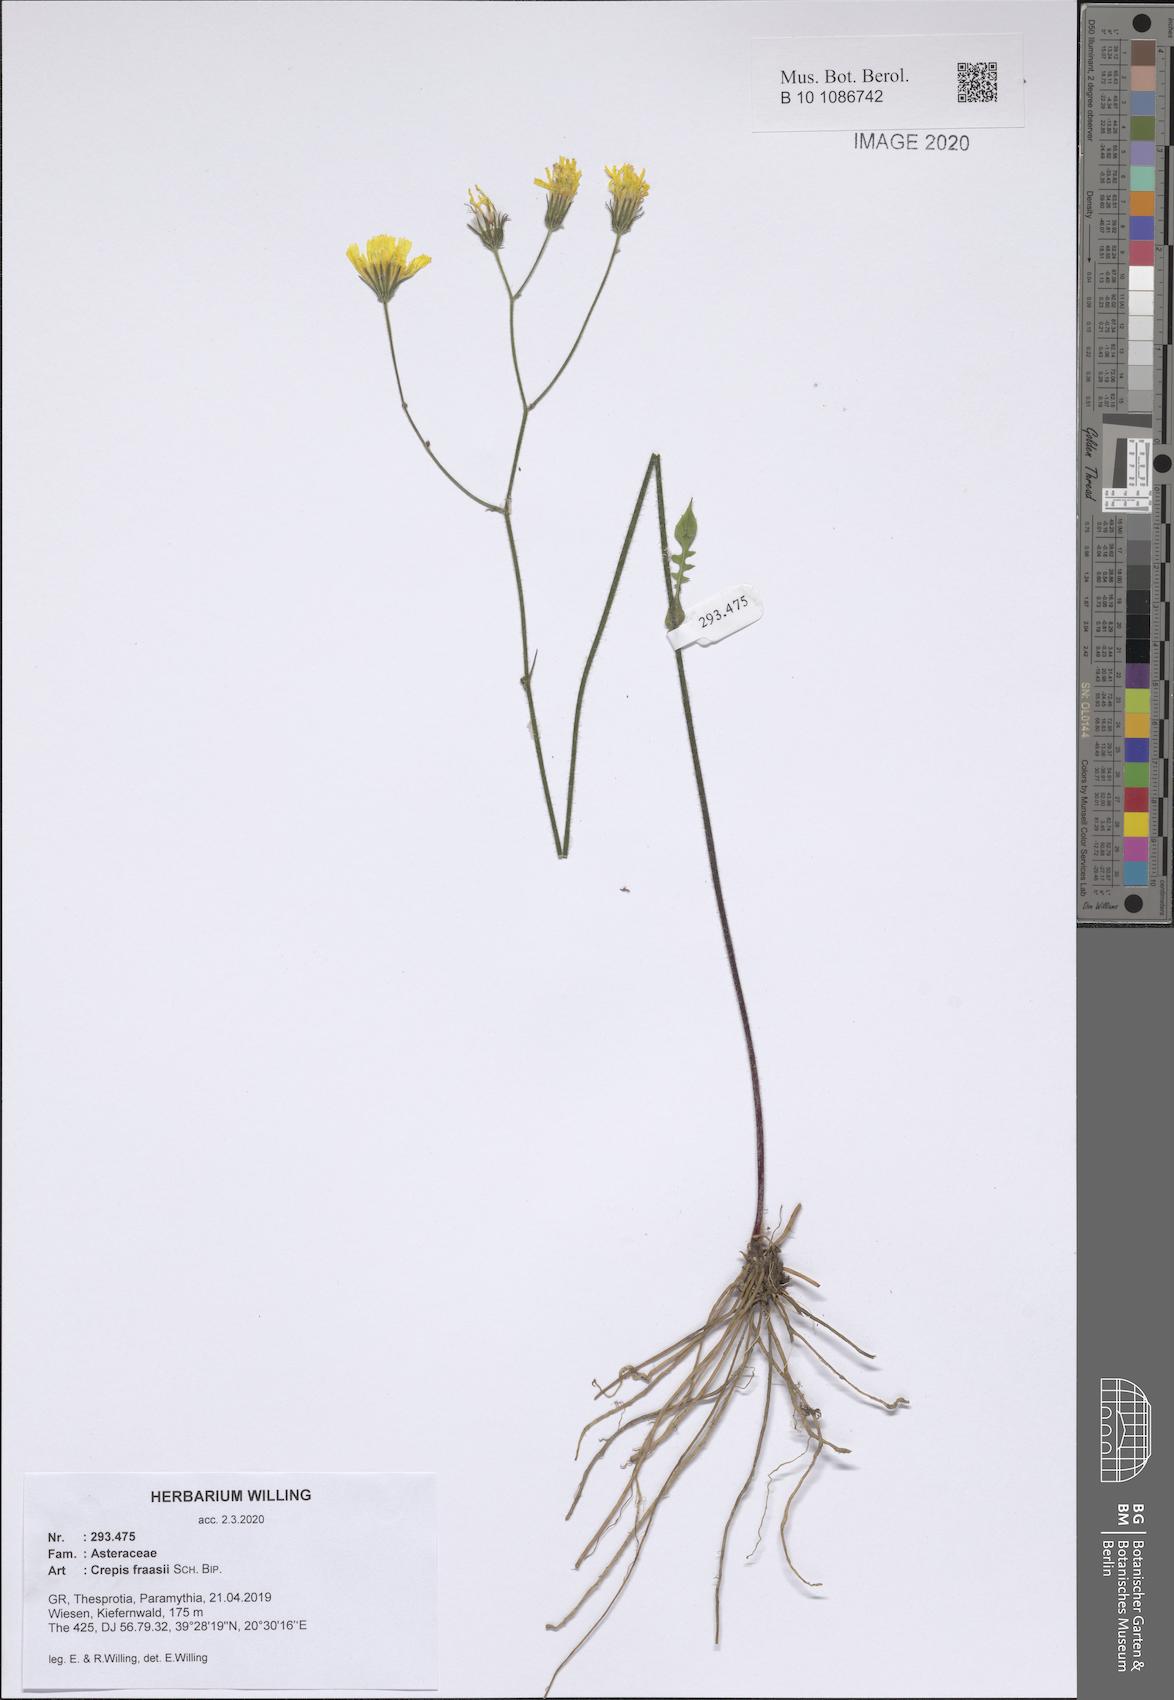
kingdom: Plantae
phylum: Tracheophyta
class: Magnoliopsida
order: Asterales
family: Asteraceae
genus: Crepis
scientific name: Crepis fraasii
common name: Hawk's-beard
